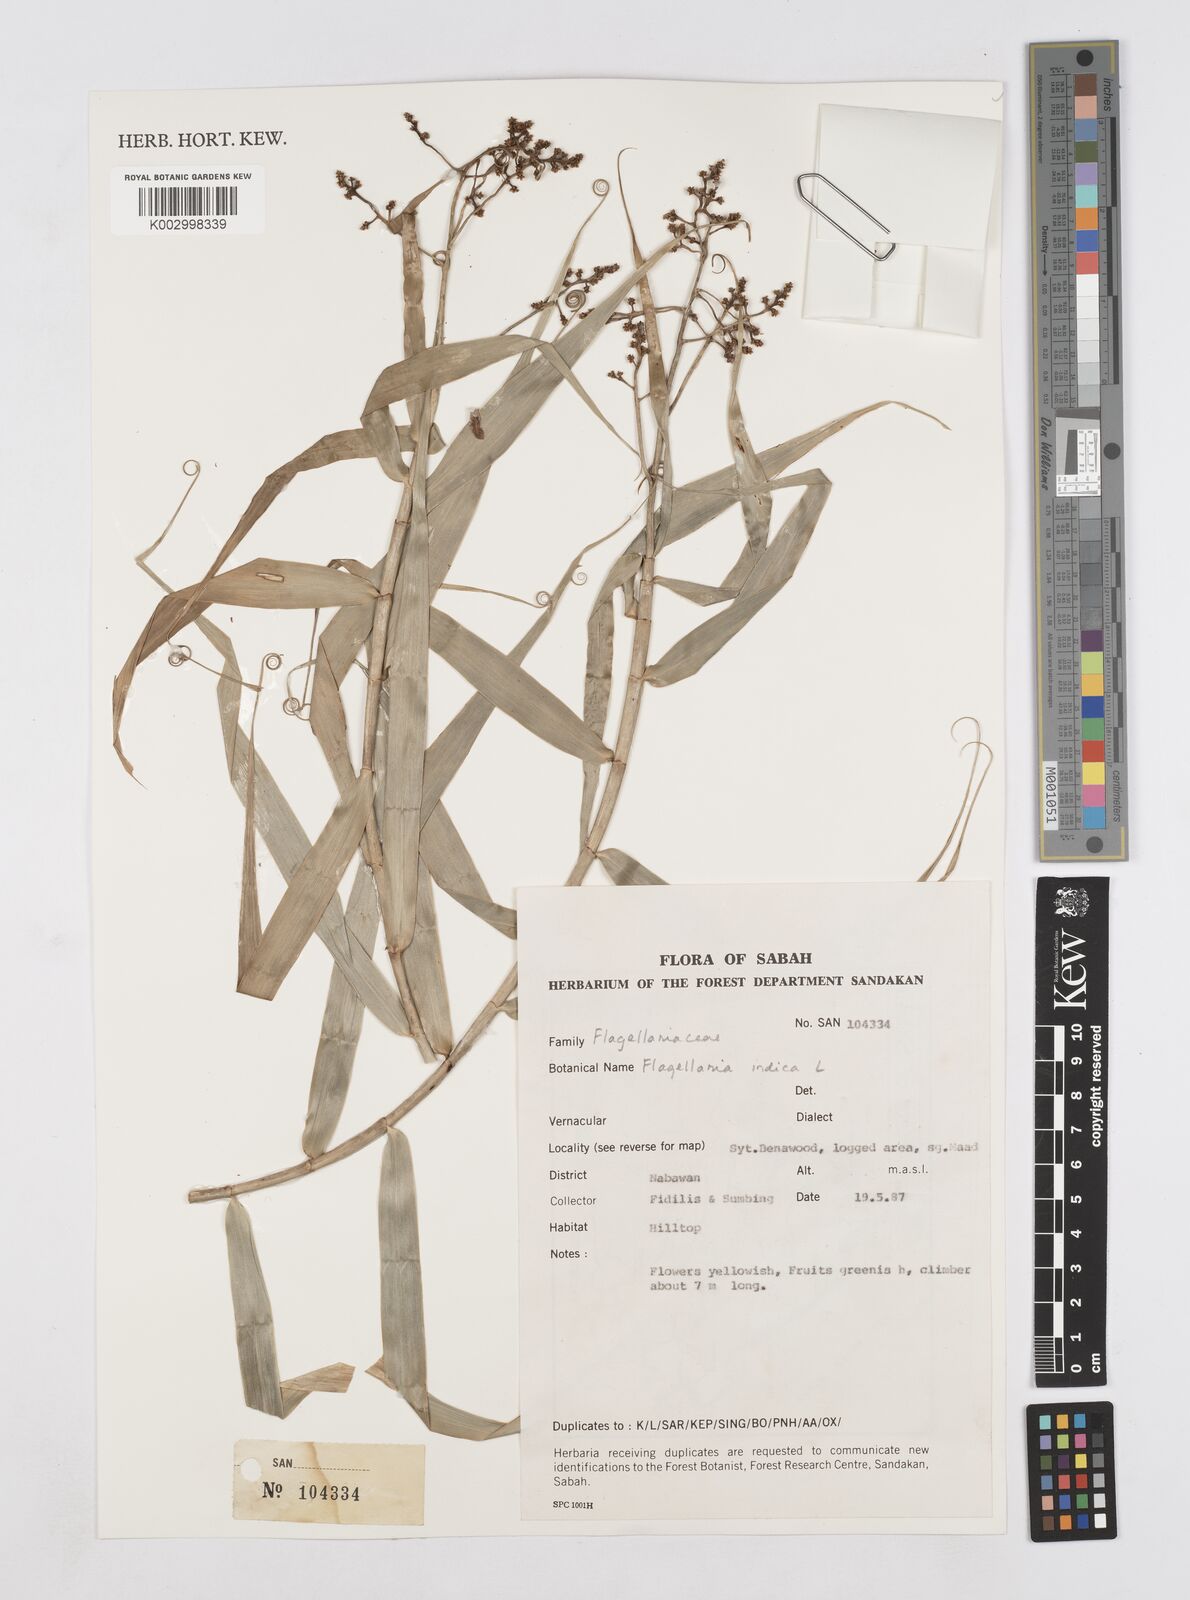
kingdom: Plantae
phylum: Tracheophyta
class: Liliopsida
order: Poales
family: Flagellariaceae
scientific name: Flagellariaceae
